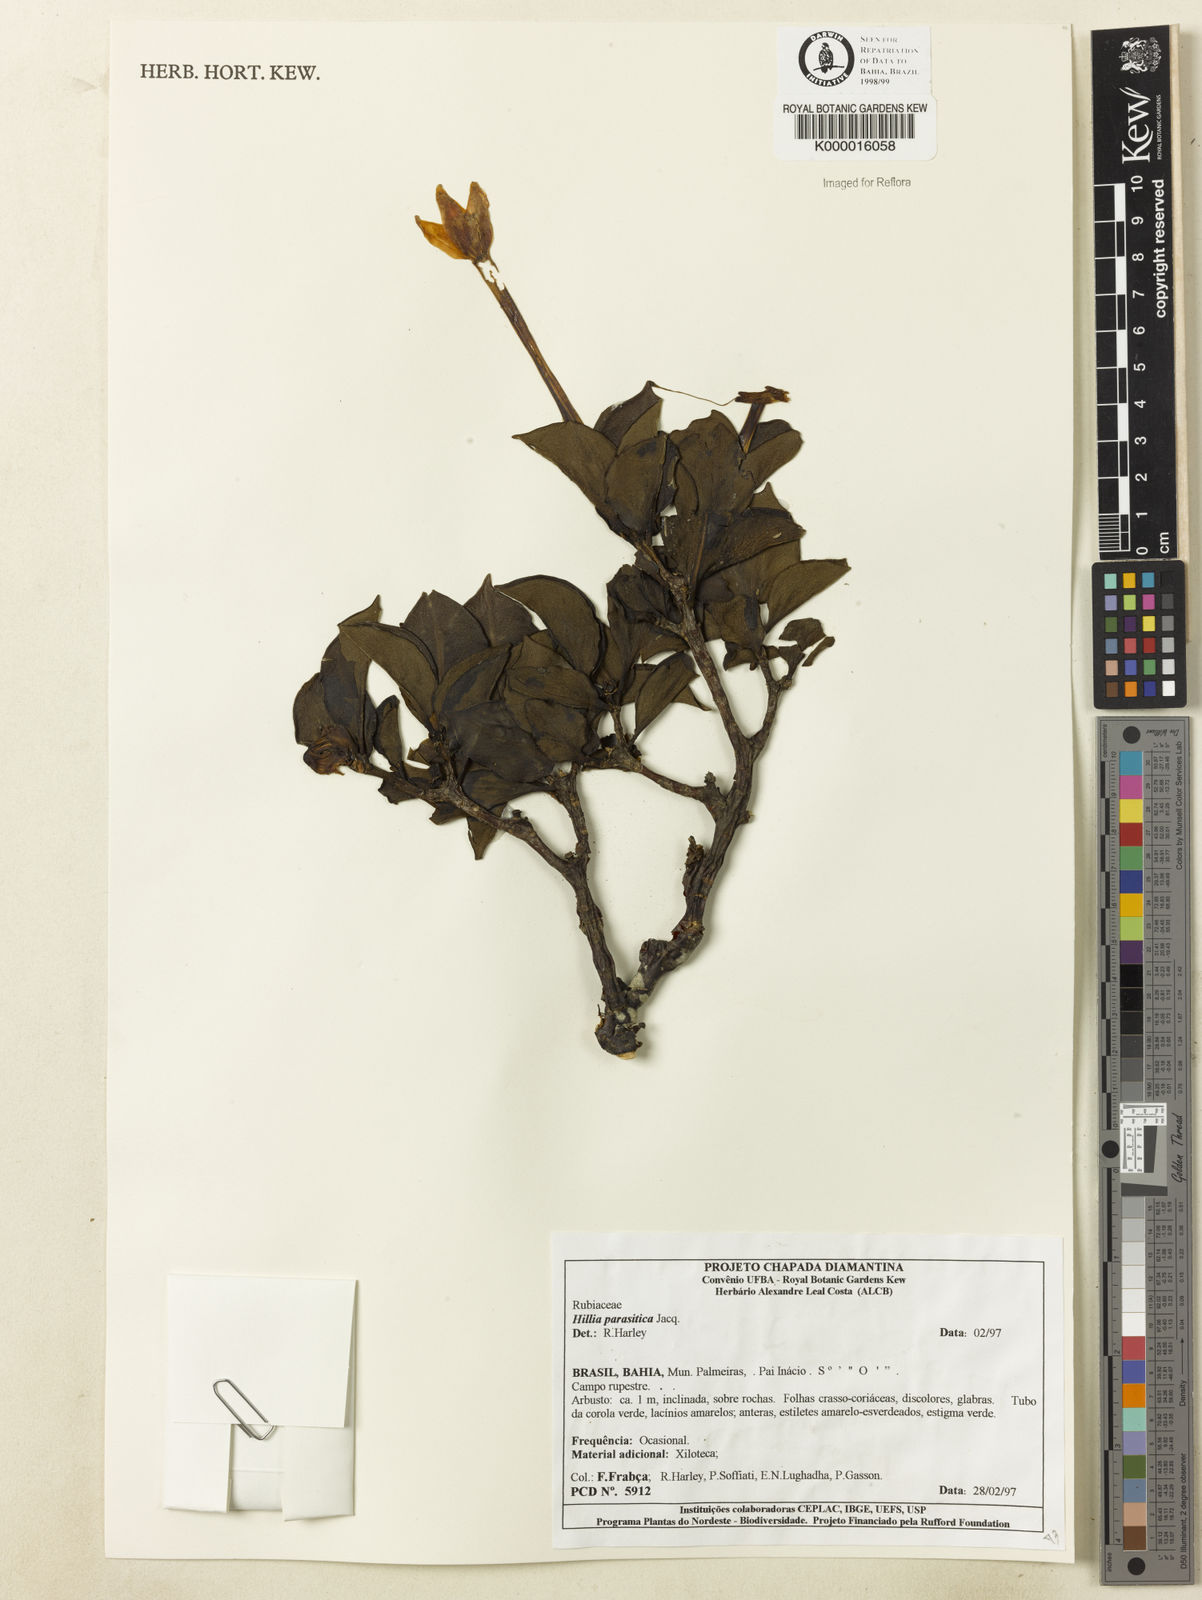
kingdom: Plantae
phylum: Tracheophyta
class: Magnoliopsida
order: Gentianales
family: Rubiaceae
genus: Hillia
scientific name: Hillia parasitica
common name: Morning star
